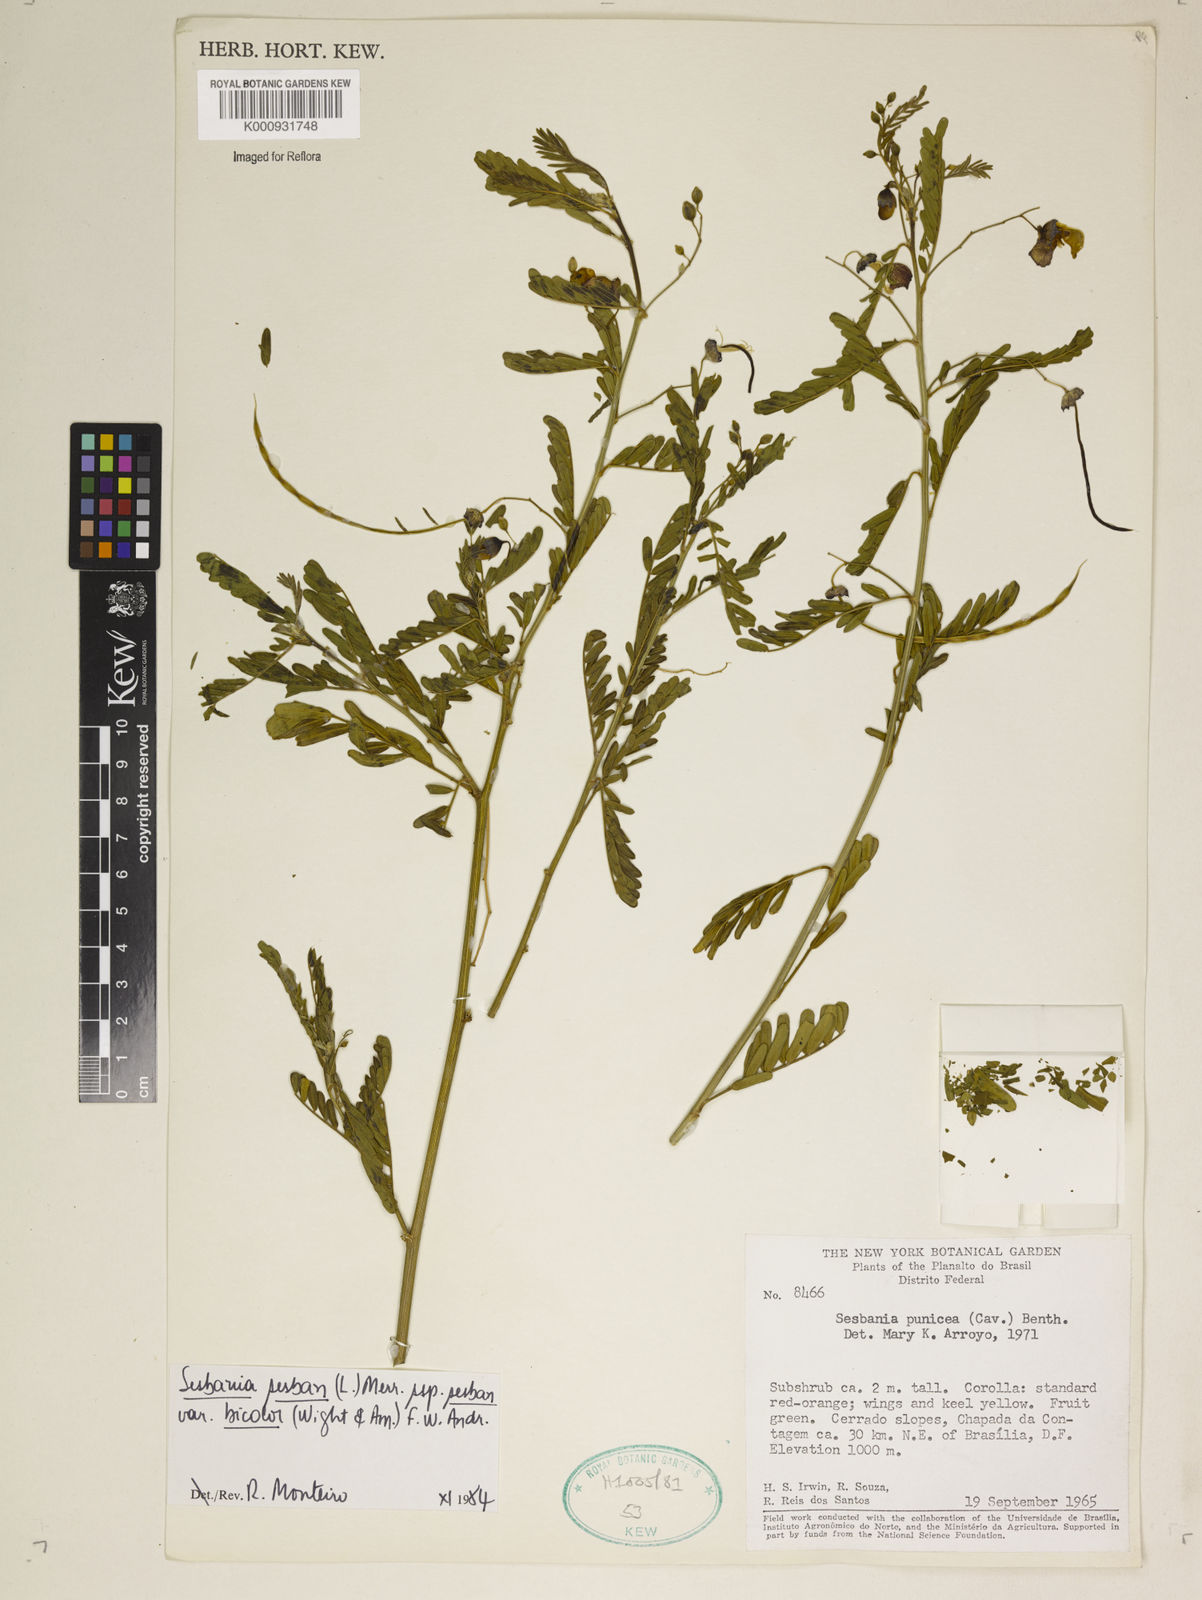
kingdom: Plantae
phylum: Tracheophyta
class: Magnoliopsida
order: Fabales
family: Fabaceae
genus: Sesbania
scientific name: Sesbania
